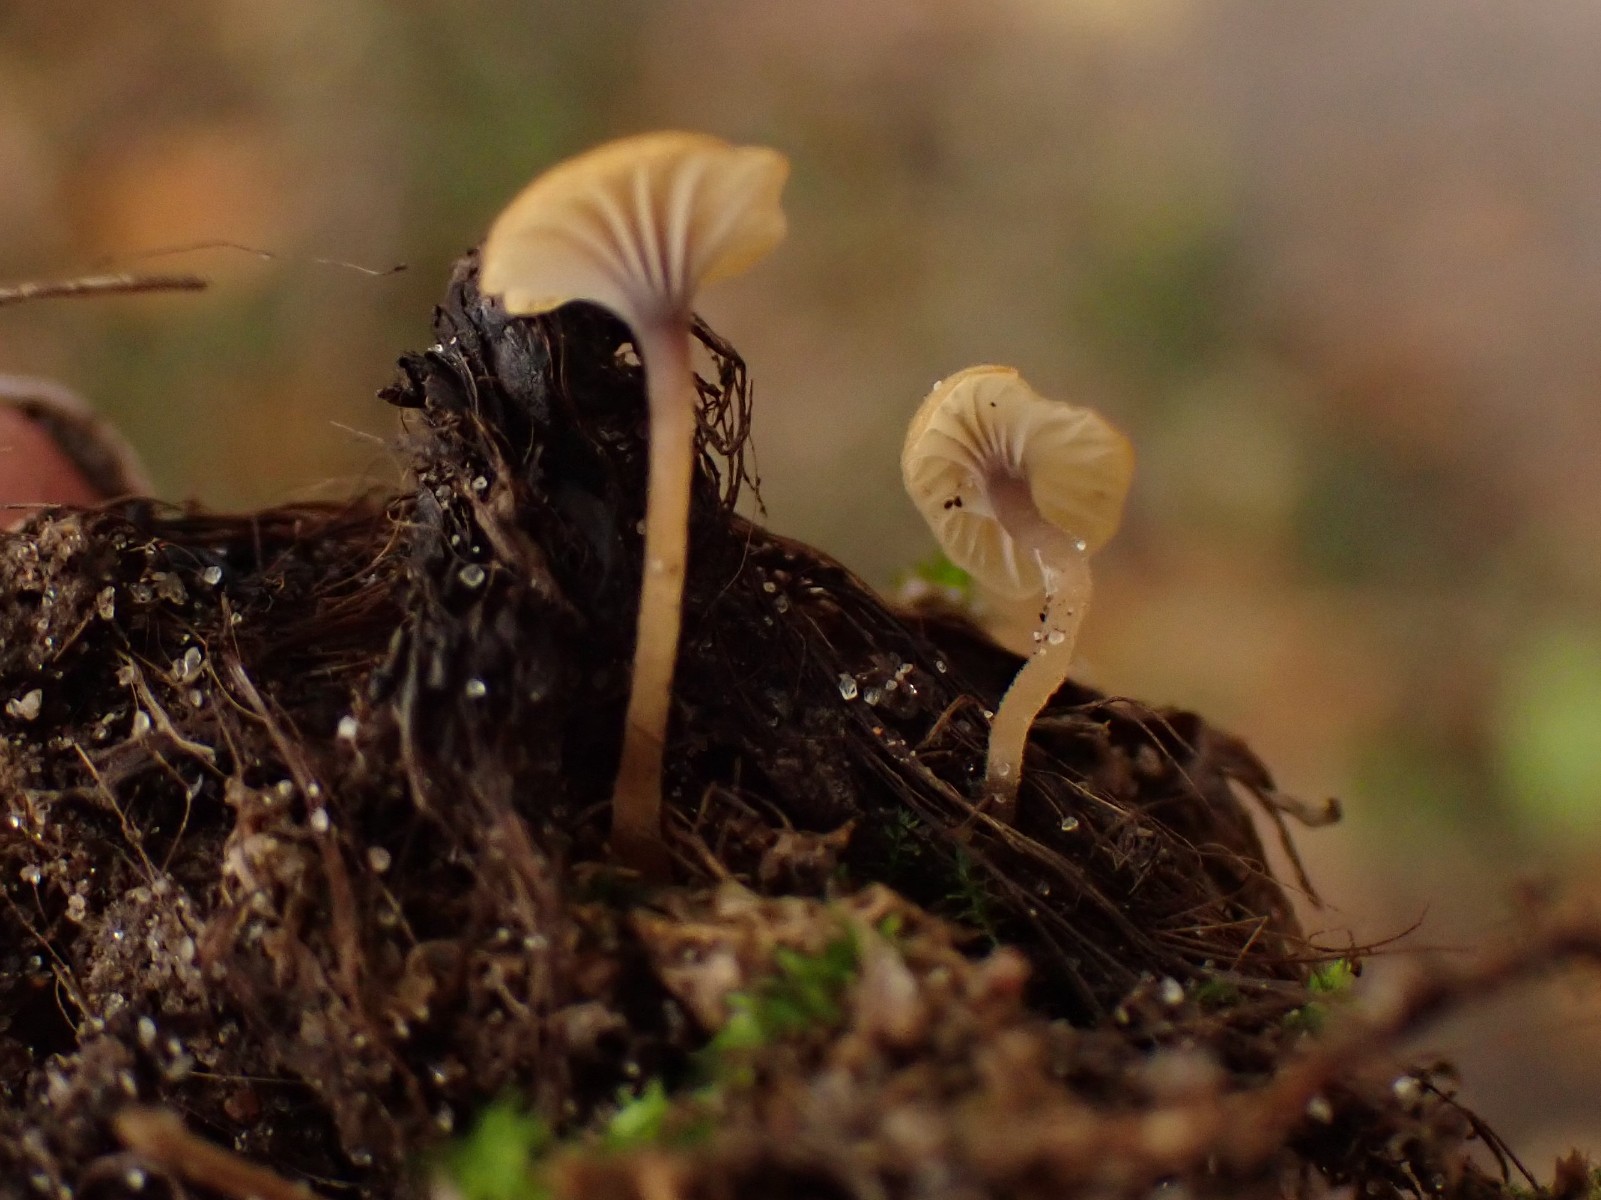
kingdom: Fungi
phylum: Basidiomycota
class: Agaricomycetes
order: Hymenochaetales
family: Rickenellaceae
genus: Rickenella
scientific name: Rickenella swartzii
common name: finstokket mosnavlehat
